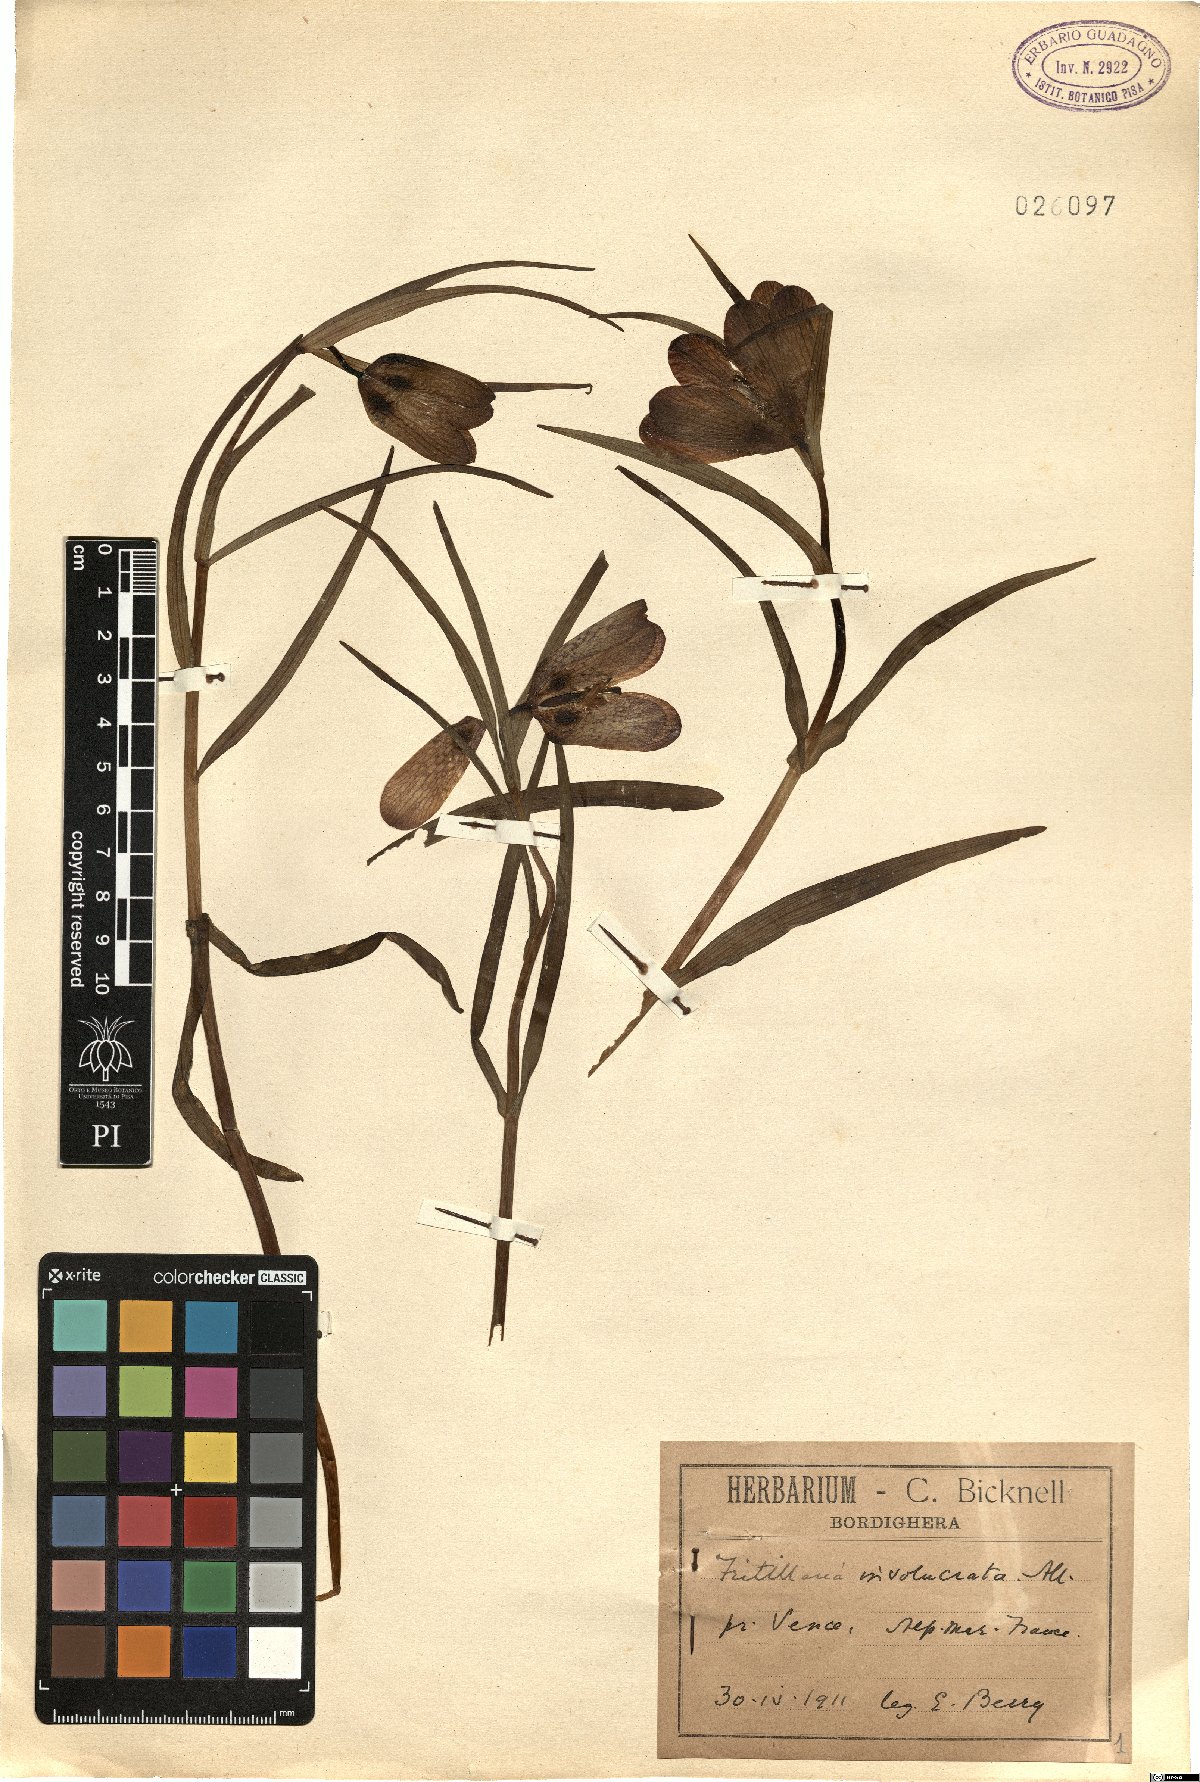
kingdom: Plantae
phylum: Tracheophyta
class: Liliopsida
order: Liliales
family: Liliaceae
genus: Fritillaria
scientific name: Fritillaria involucrata
